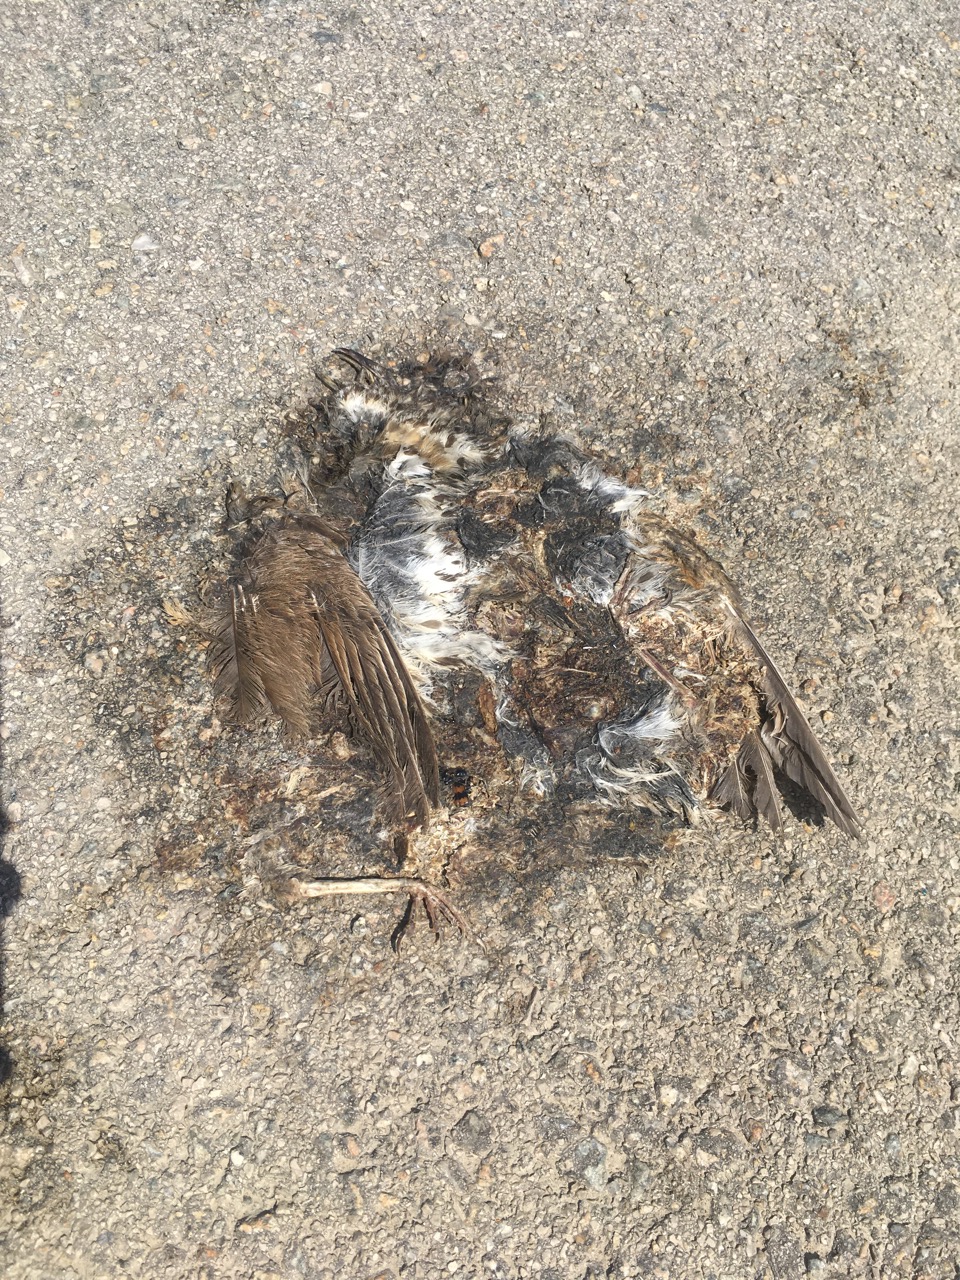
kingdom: Animalia
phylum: Chordata
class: Aves
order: Passeriformes
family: Turdidae
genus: Turdus
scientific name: Turdus philomelos
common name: Song thrush
